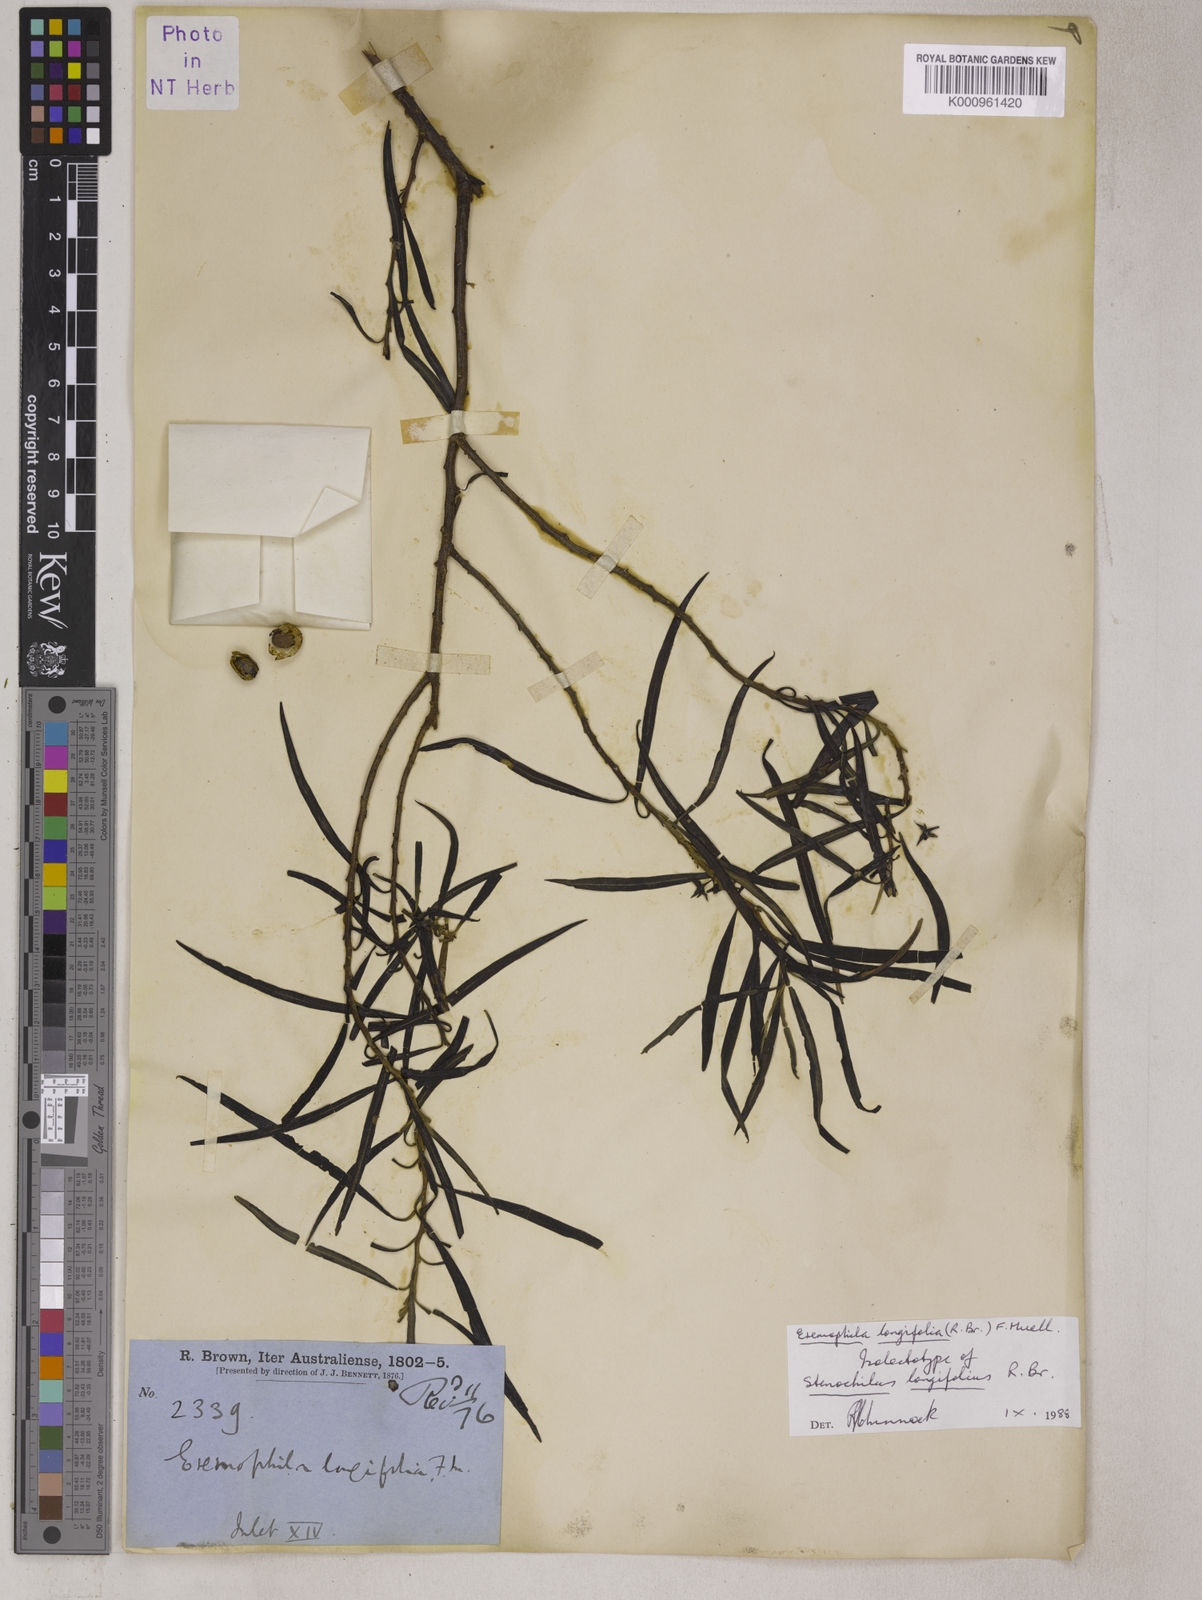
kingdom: Plantae
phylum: Tracheophyta
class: Magnoliopsida
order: Lamiales
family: Scrophulariaceae
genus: Eremophila
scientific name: Eremophila longifolia
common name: Longleaf emubush
